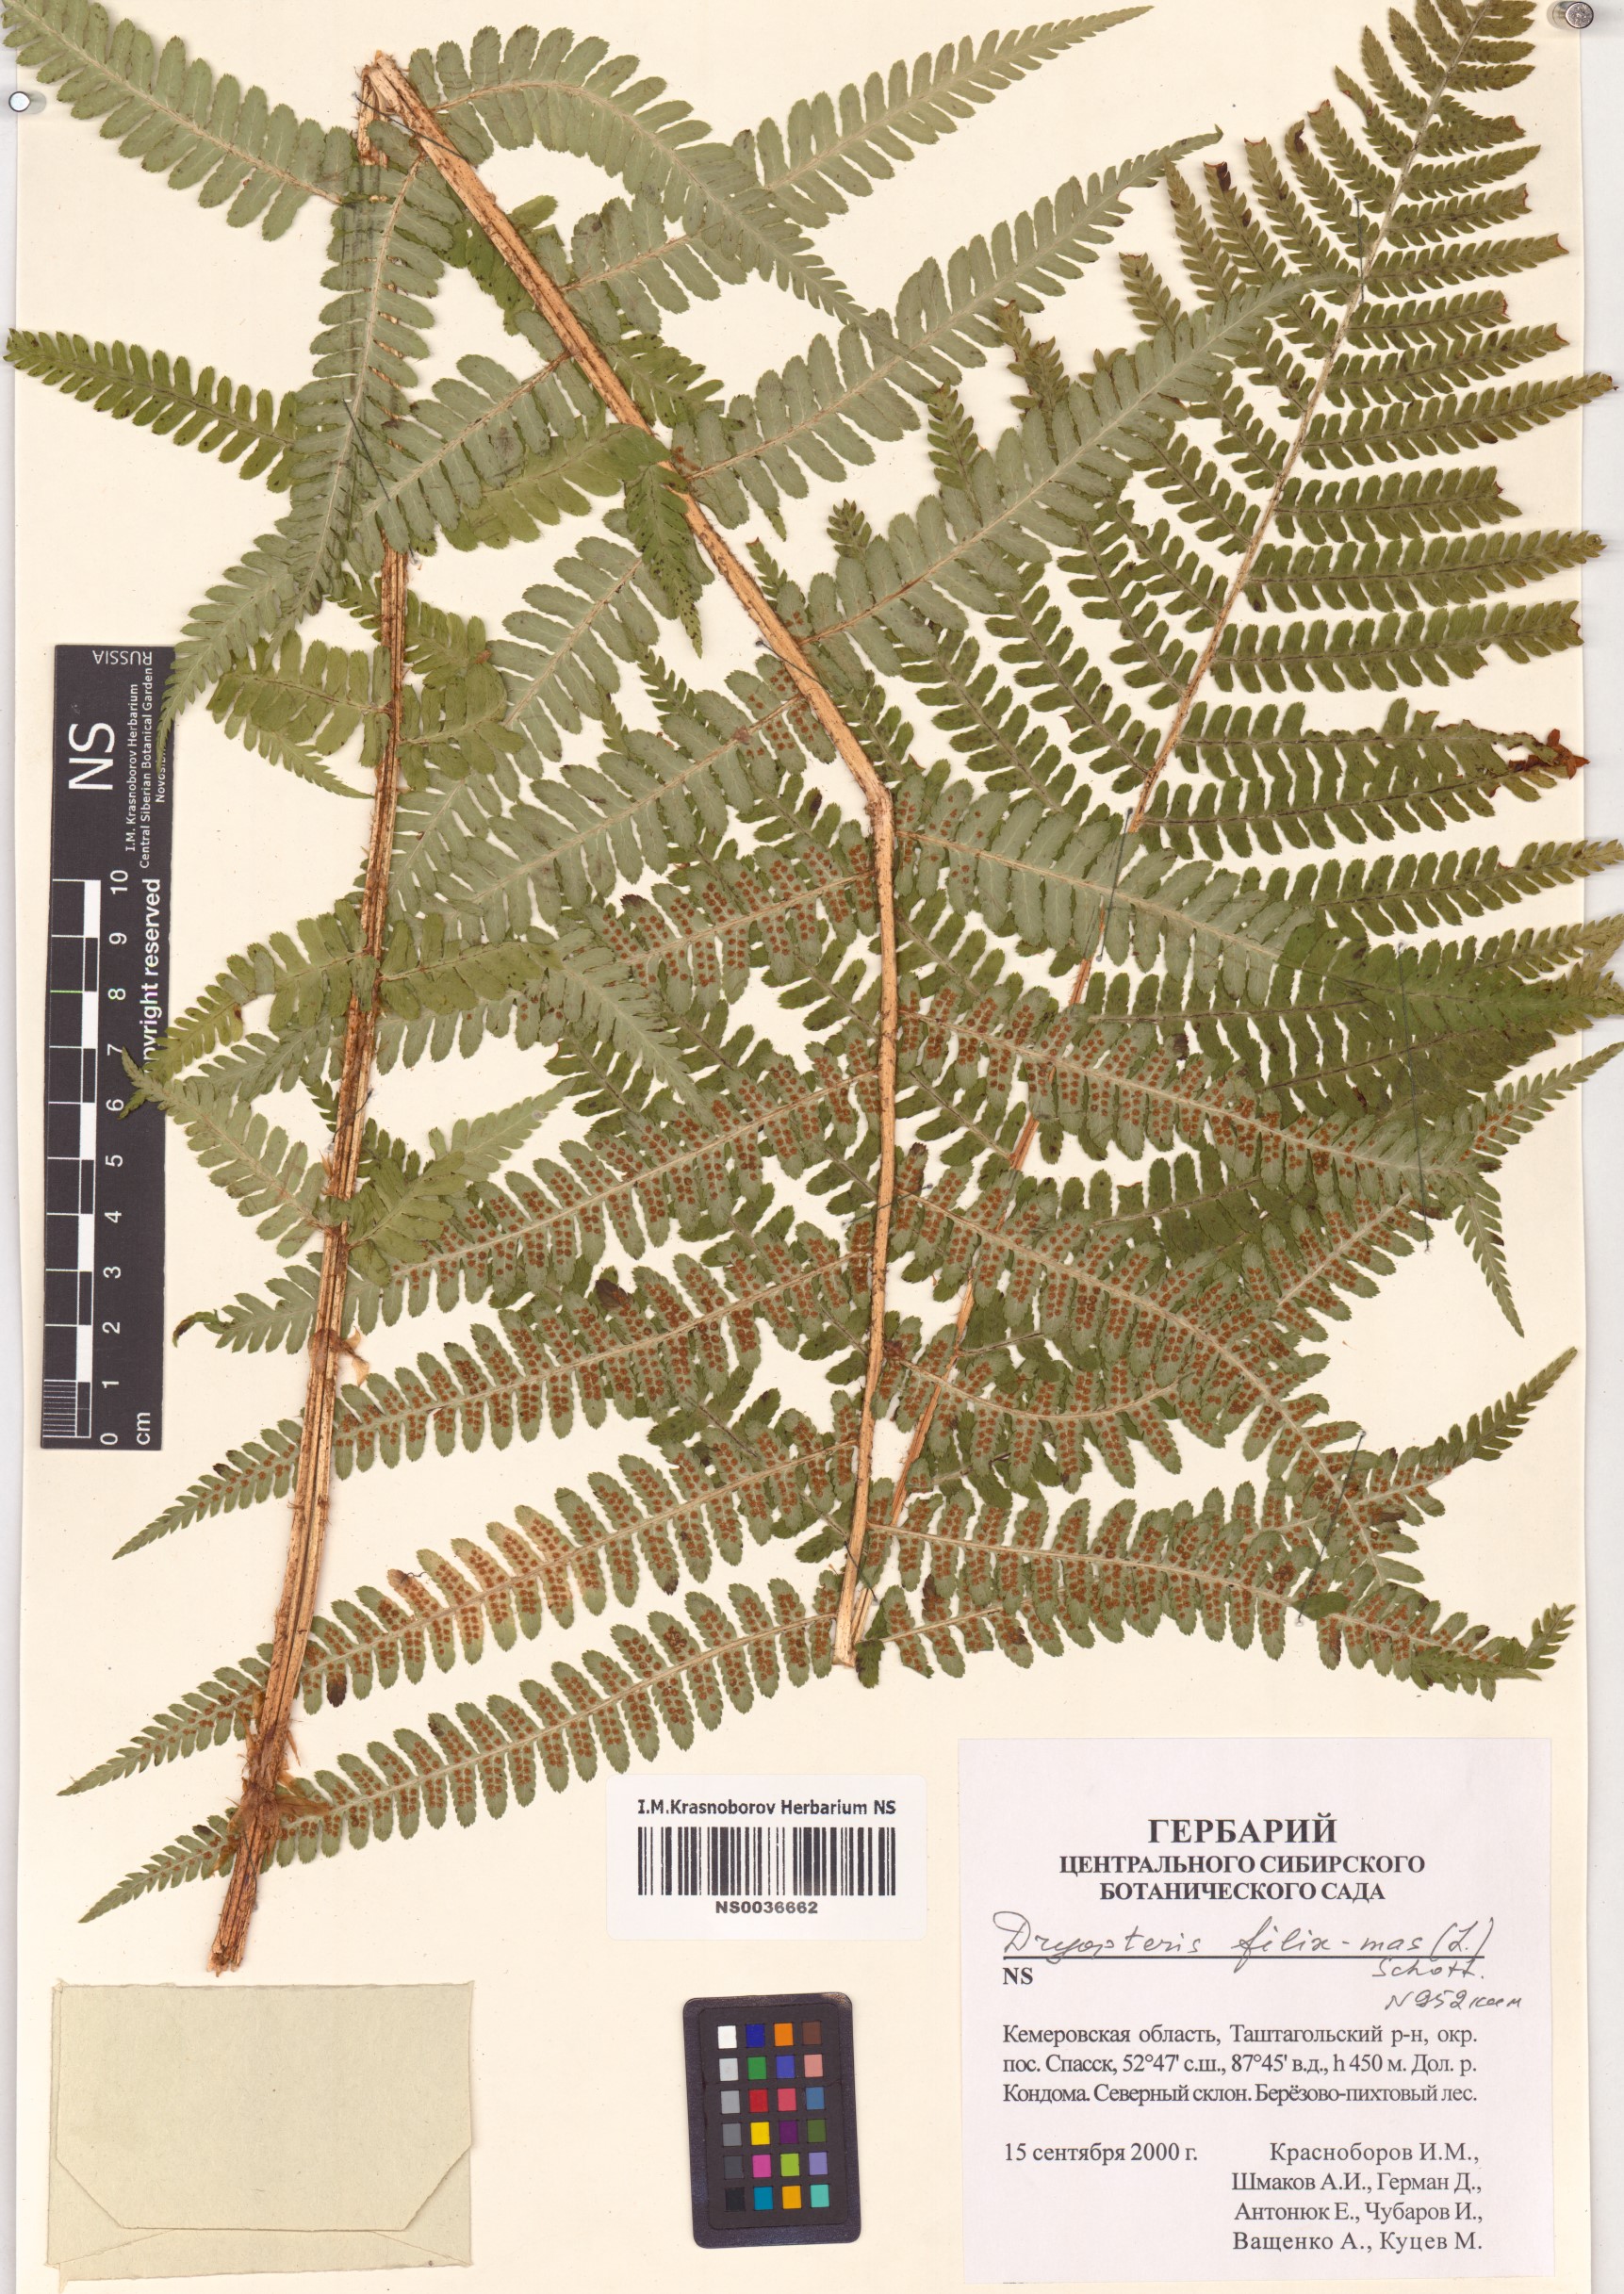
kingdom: Plantae
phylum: Tracheophyta
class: Polypodiopsida
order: Polypodiales
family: Dryopteridaceae
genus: Dryopteris
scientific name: Dryopteris filix-mas
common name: Male fern
